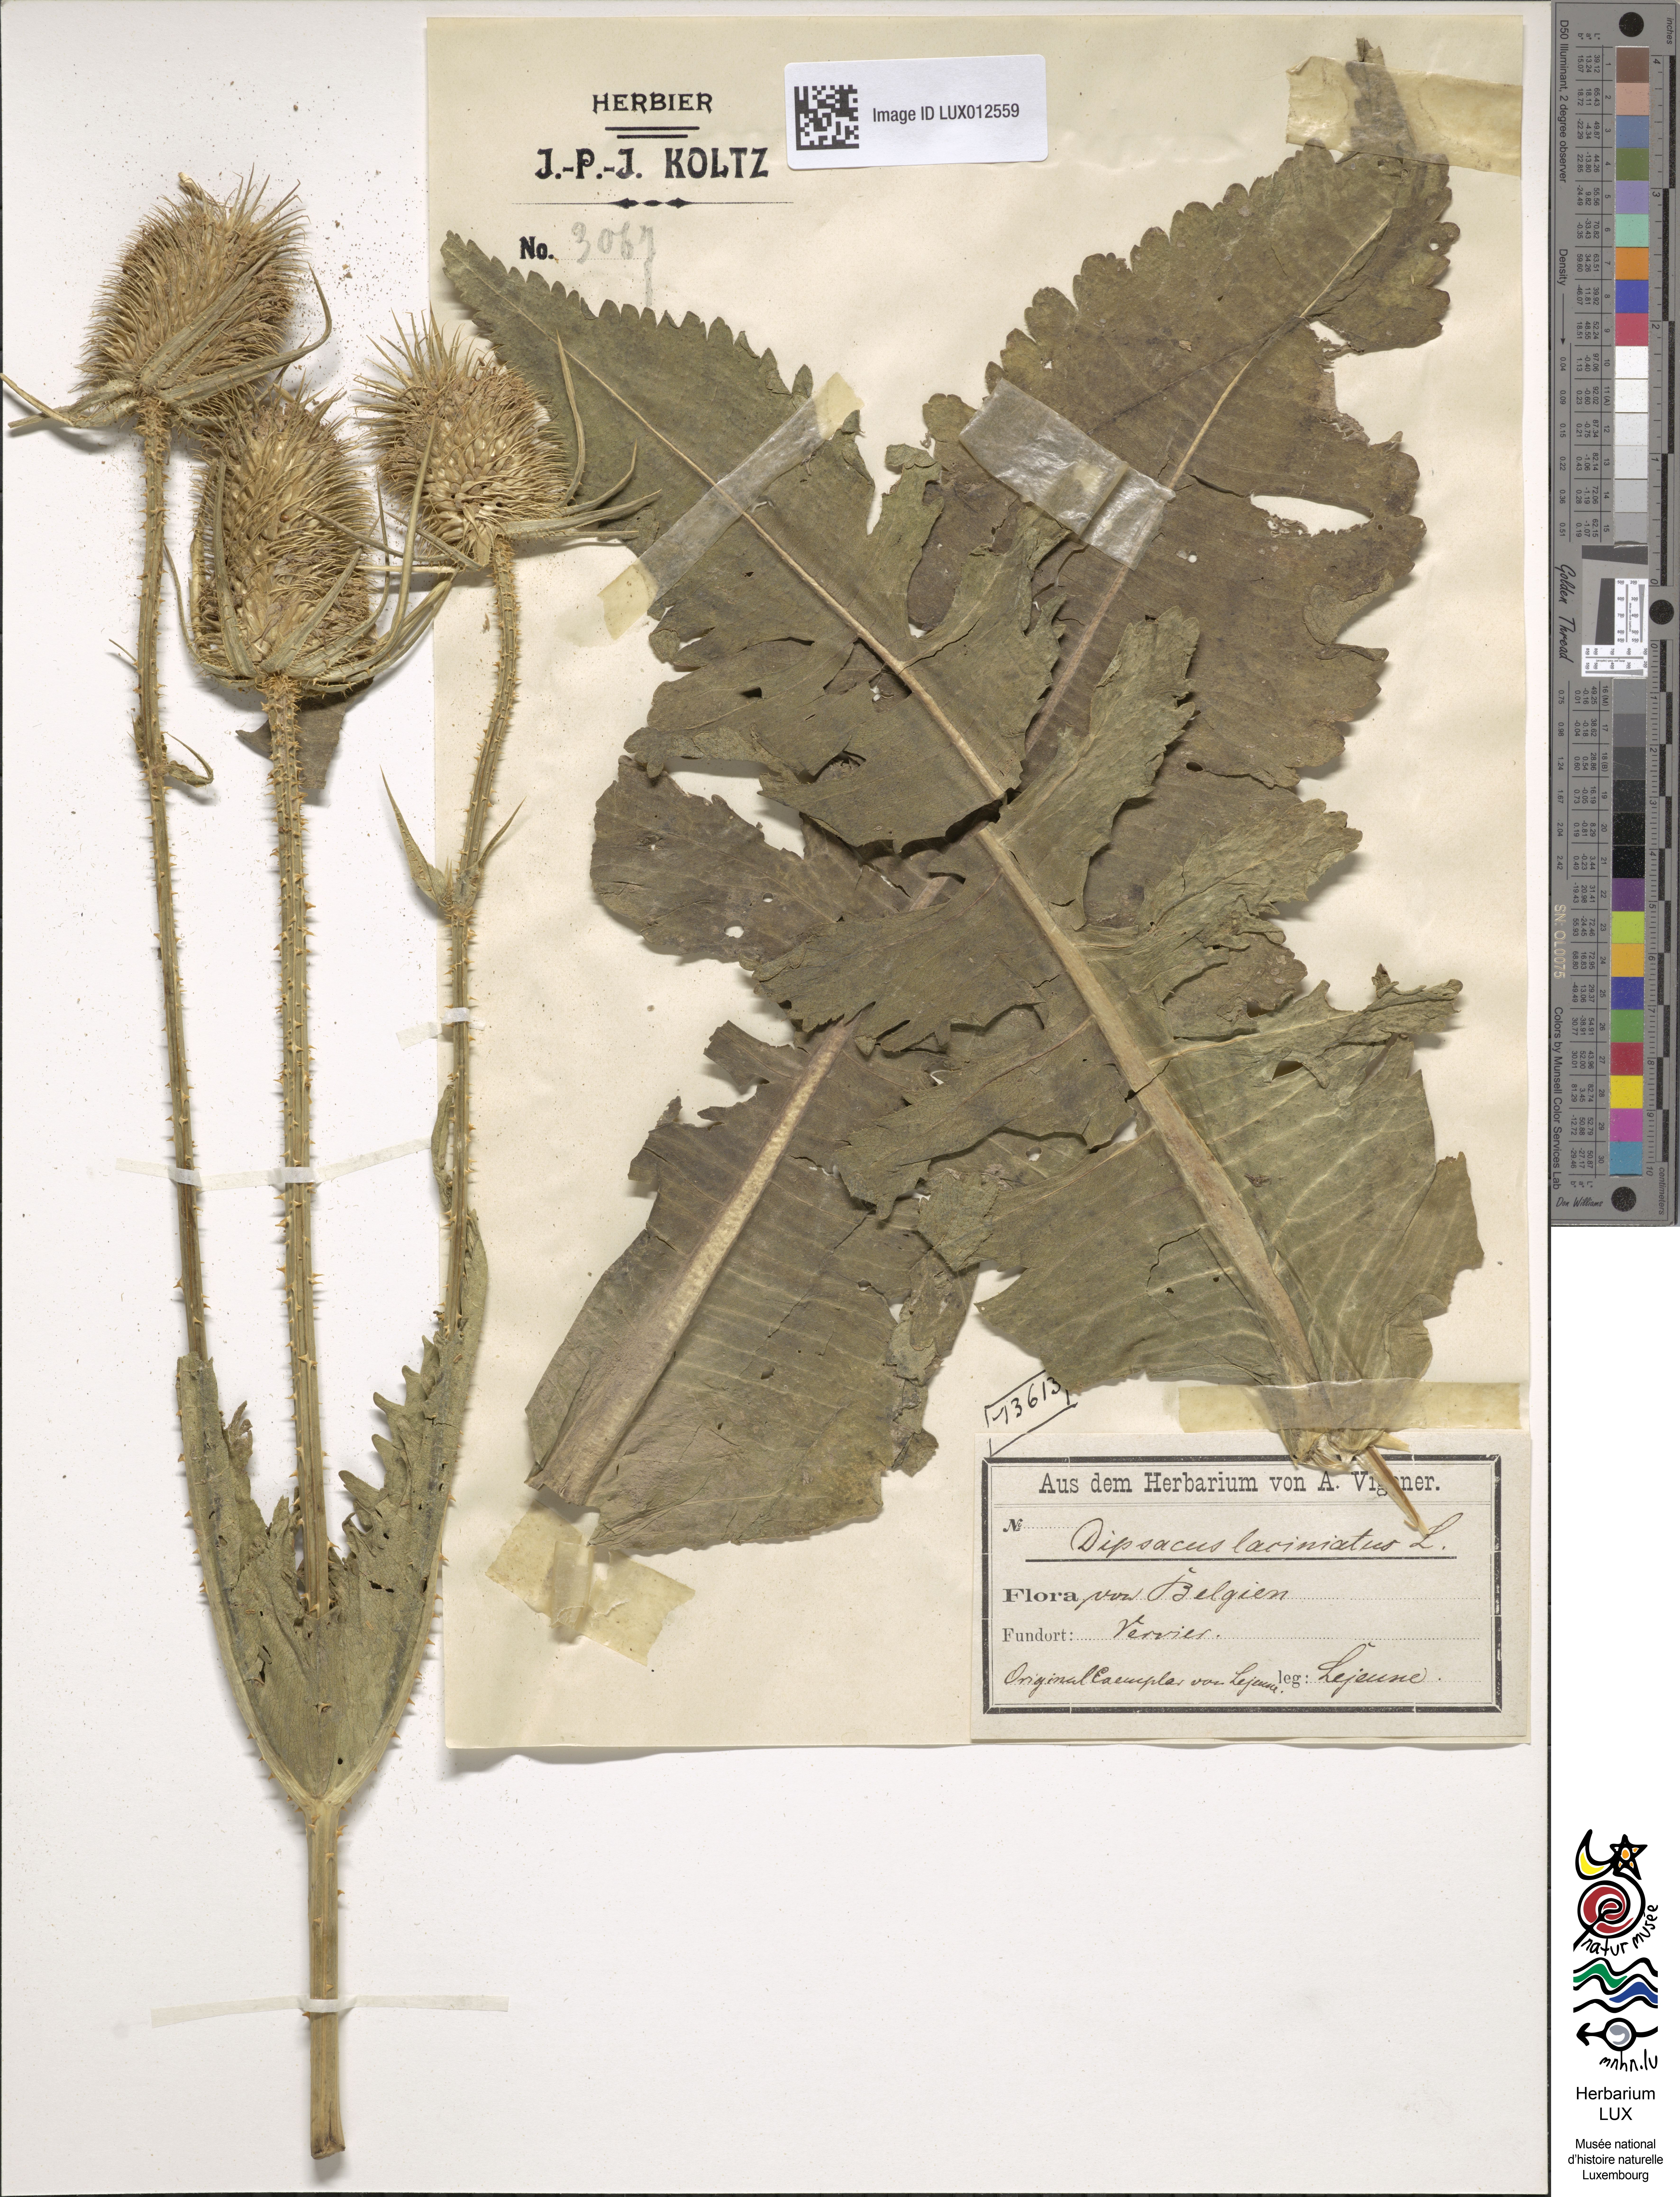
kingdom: Plantae
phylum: Tracheophyta
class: Magnoliopsida
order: Dipsacales
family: Caprifoliaceae
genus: Dipsacus
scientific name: Dipsacus laciniatus
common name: Cut-leaved teasel
